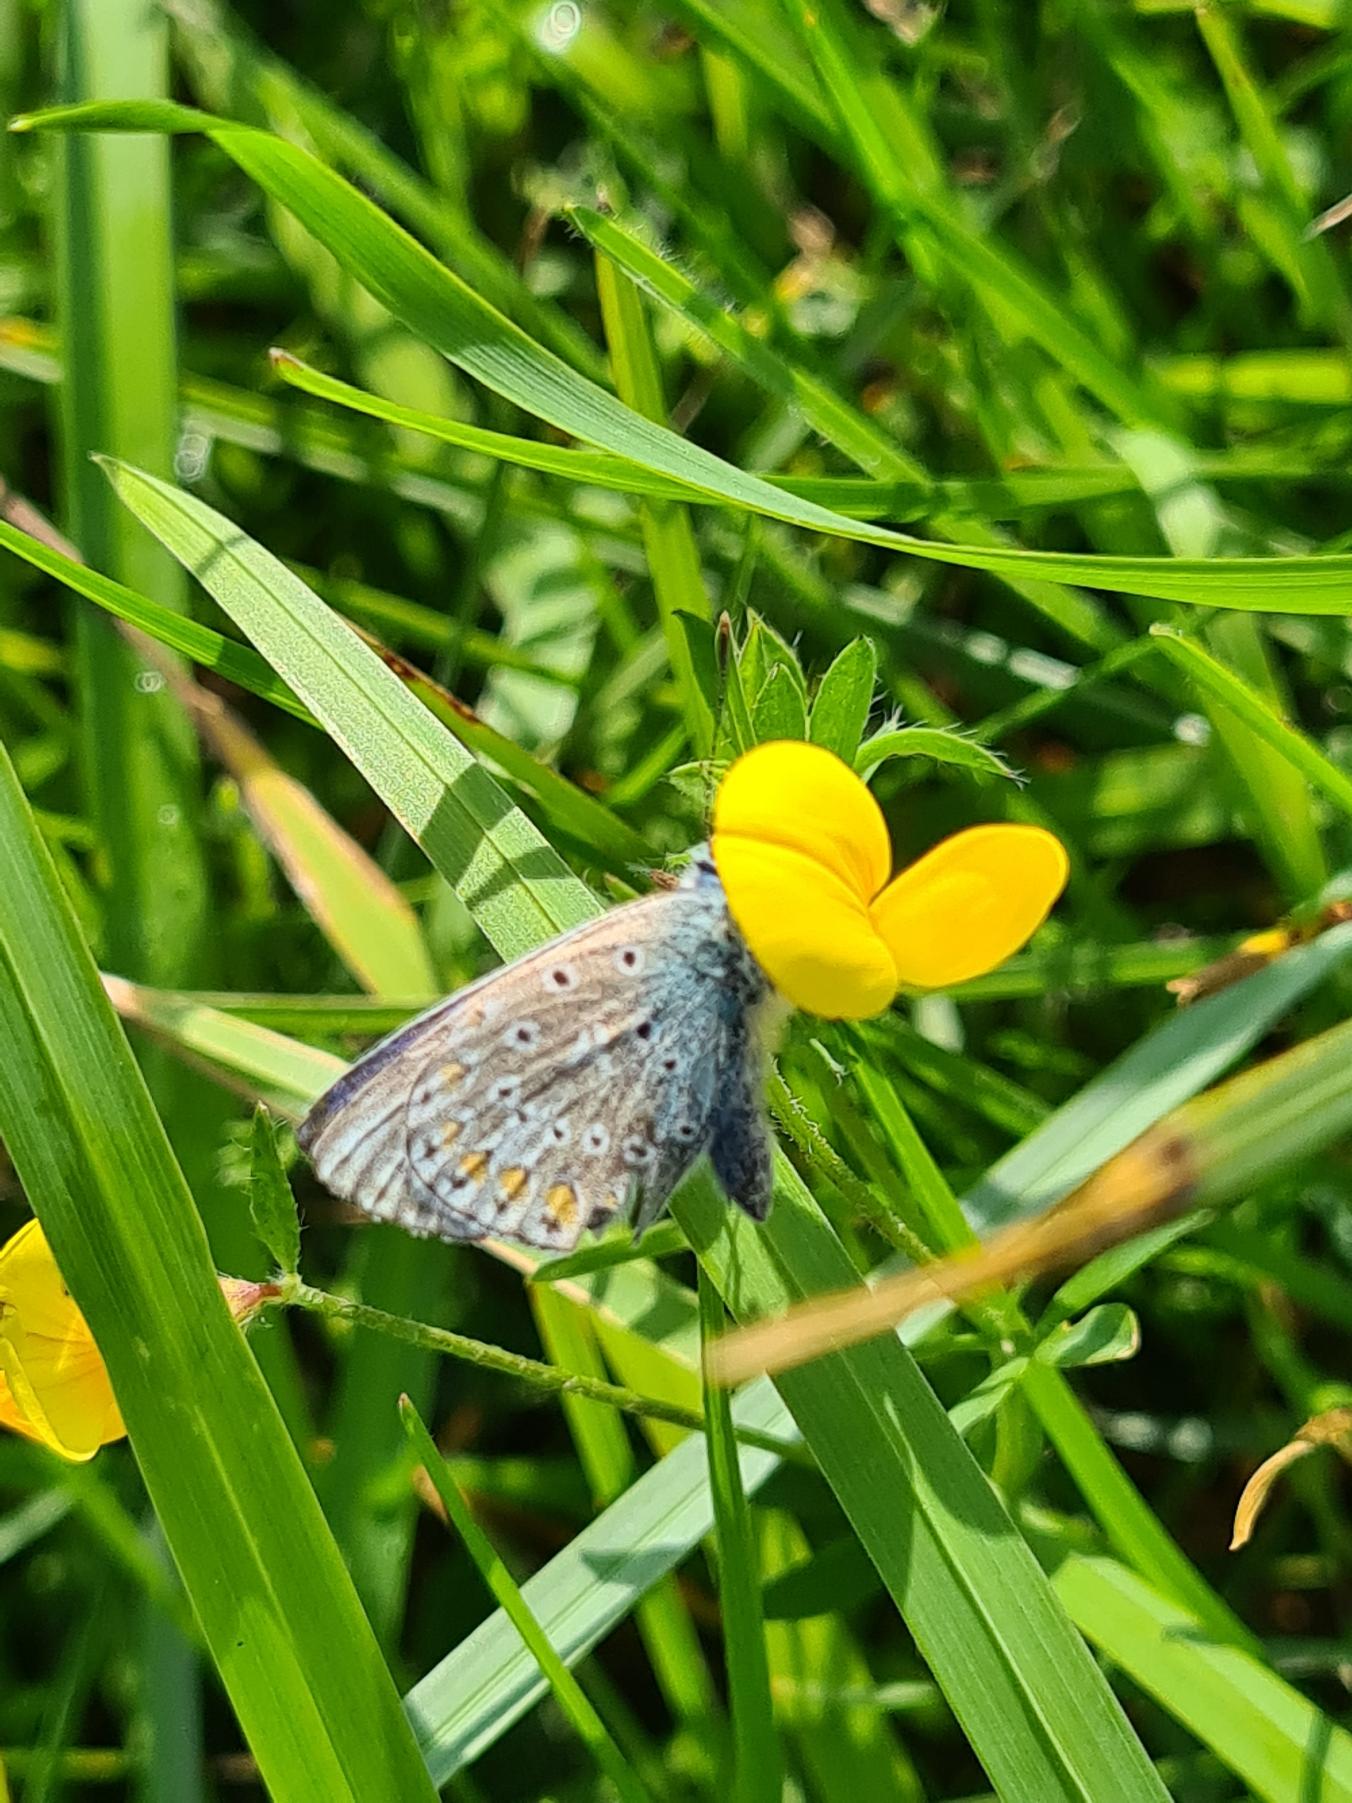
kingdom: Animalia
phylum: Arthropoda
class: Insecta
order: Lepidoptera
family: Lycaenidae
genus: Polyommatus
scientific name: Polyommatus icarus
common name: Almindelig blåfugl
